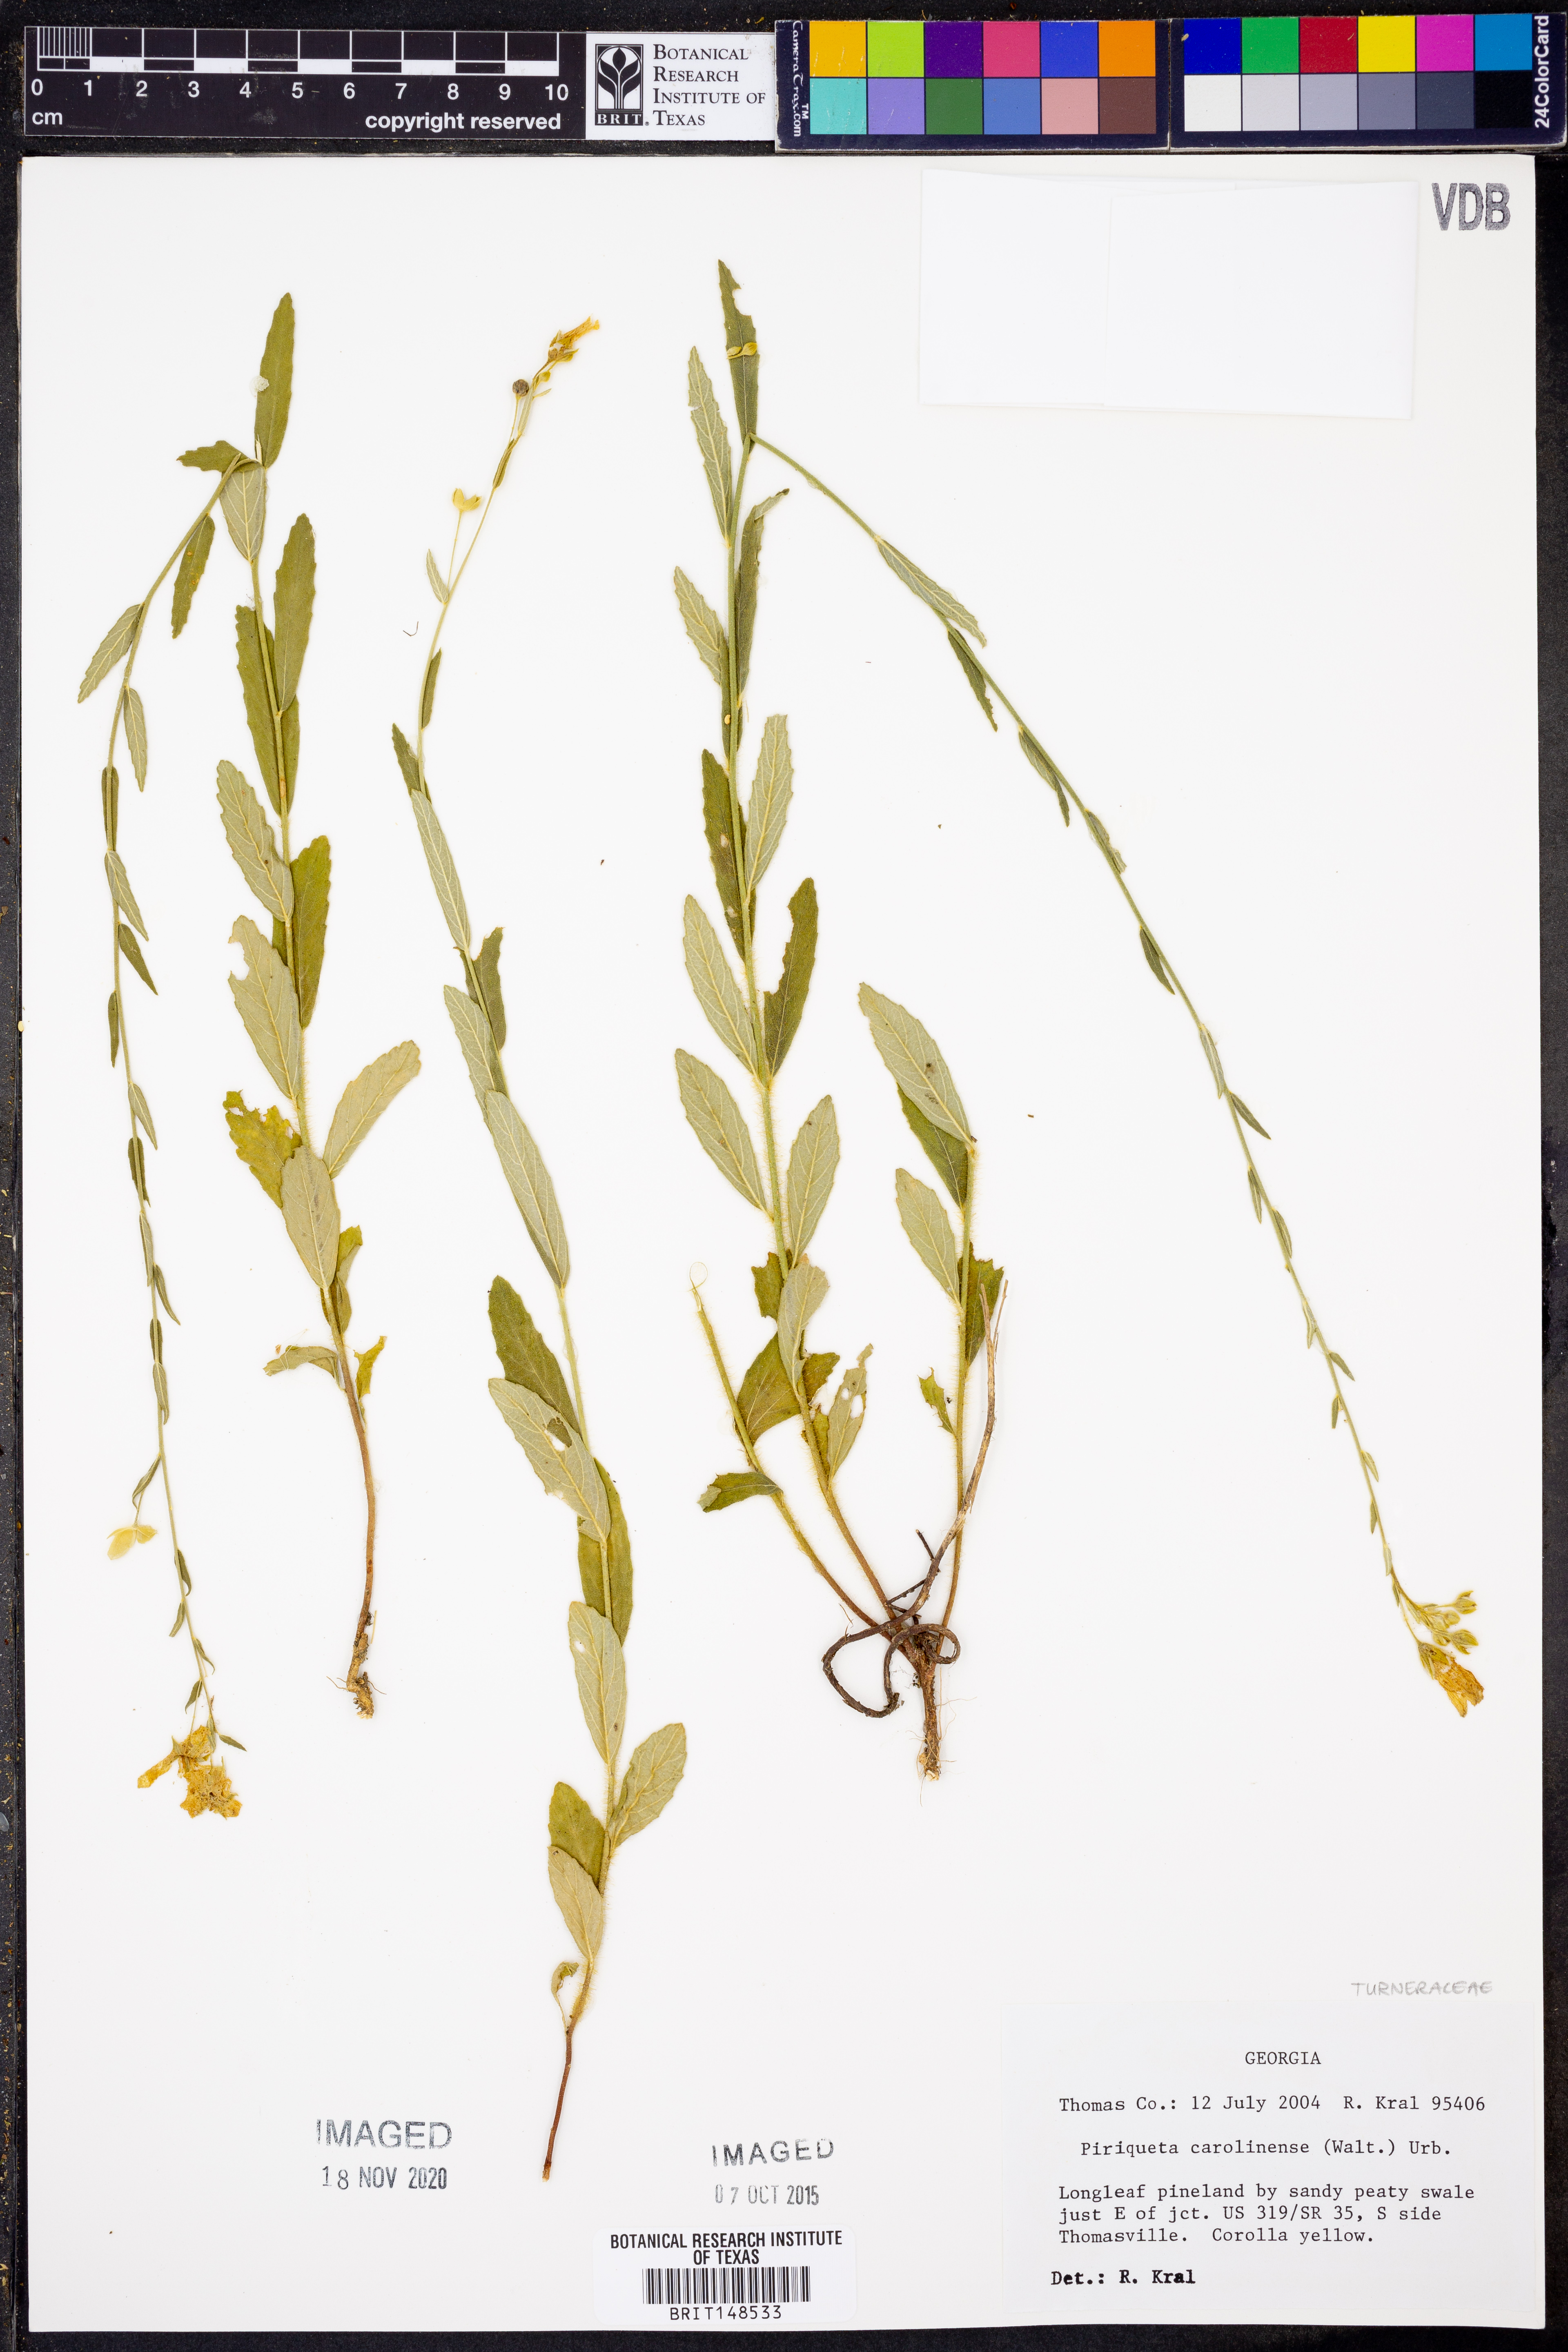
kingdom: Plantae
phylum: Tracheophyta
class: Magnoliopsida
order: Malpighiales
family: Turneraceae
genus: Piriqueta
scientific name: Piriqueta
